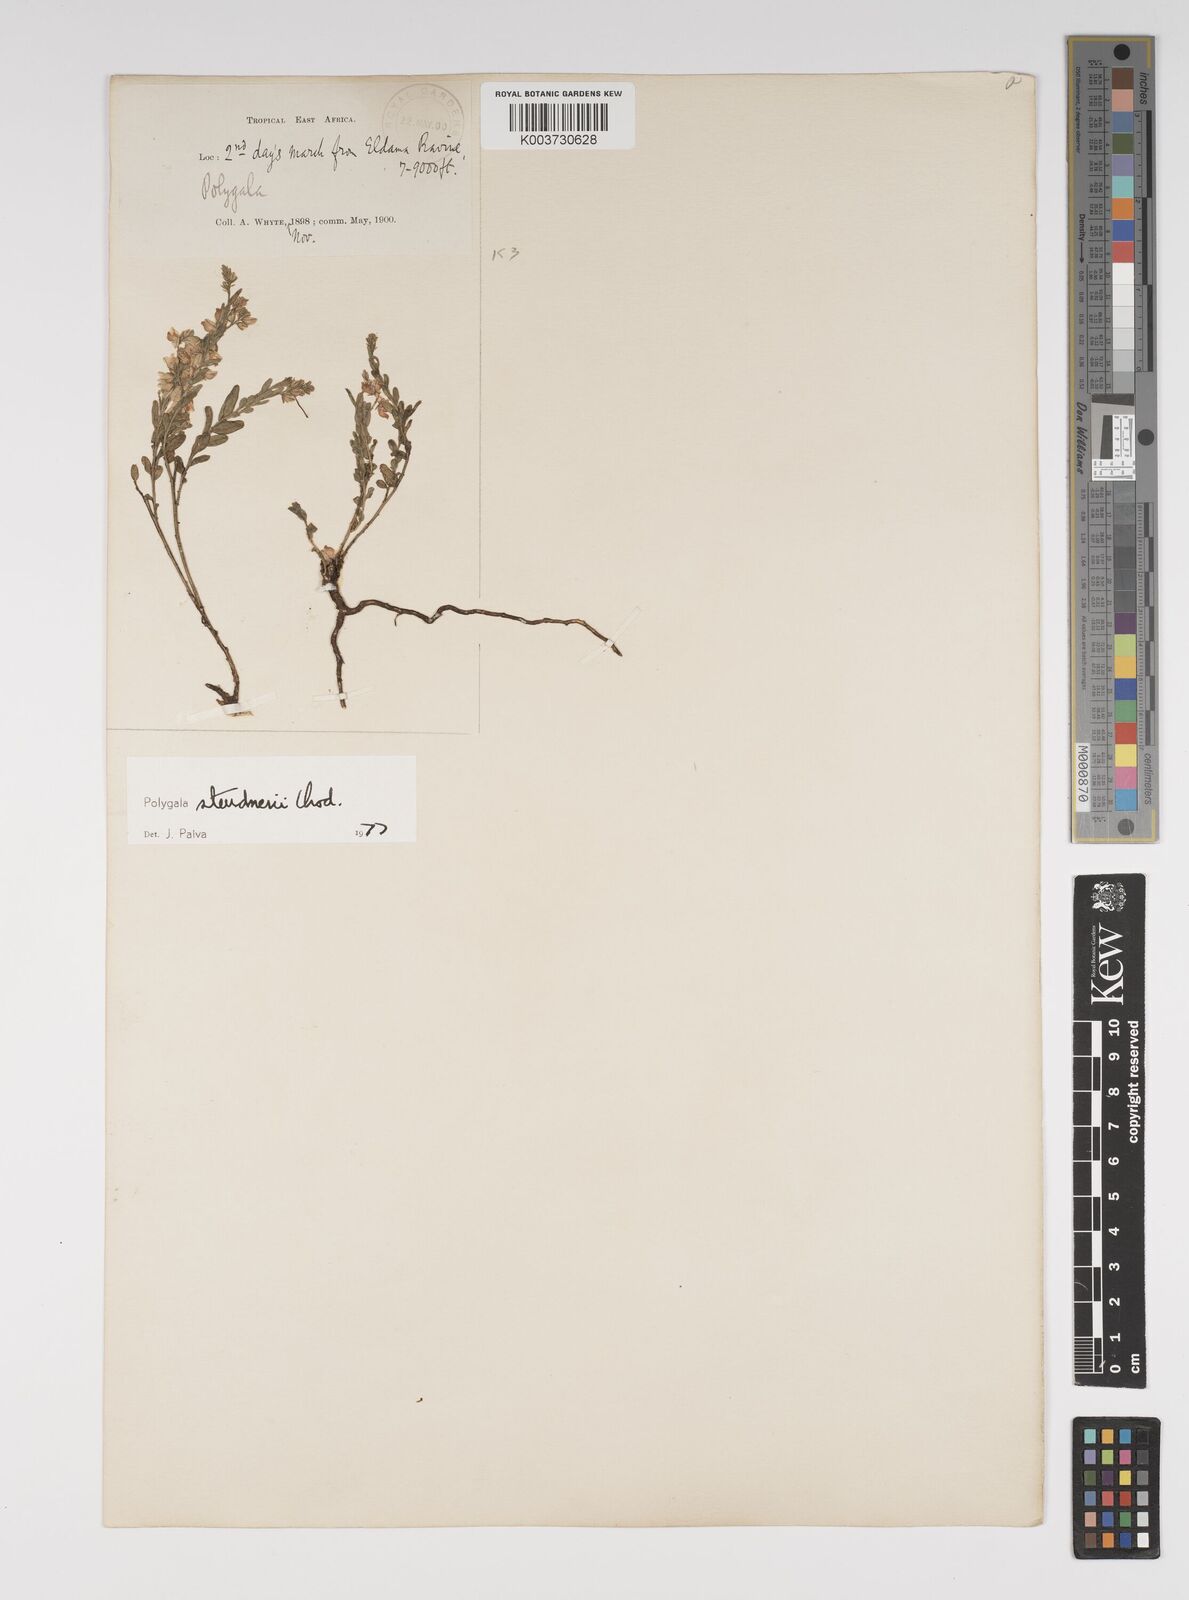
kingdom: Plantae
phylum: Tracheophyta
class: Magnoliopsida
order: Fabales
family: Polygalaceae
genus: Polygala
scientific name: Polygala steudneri
